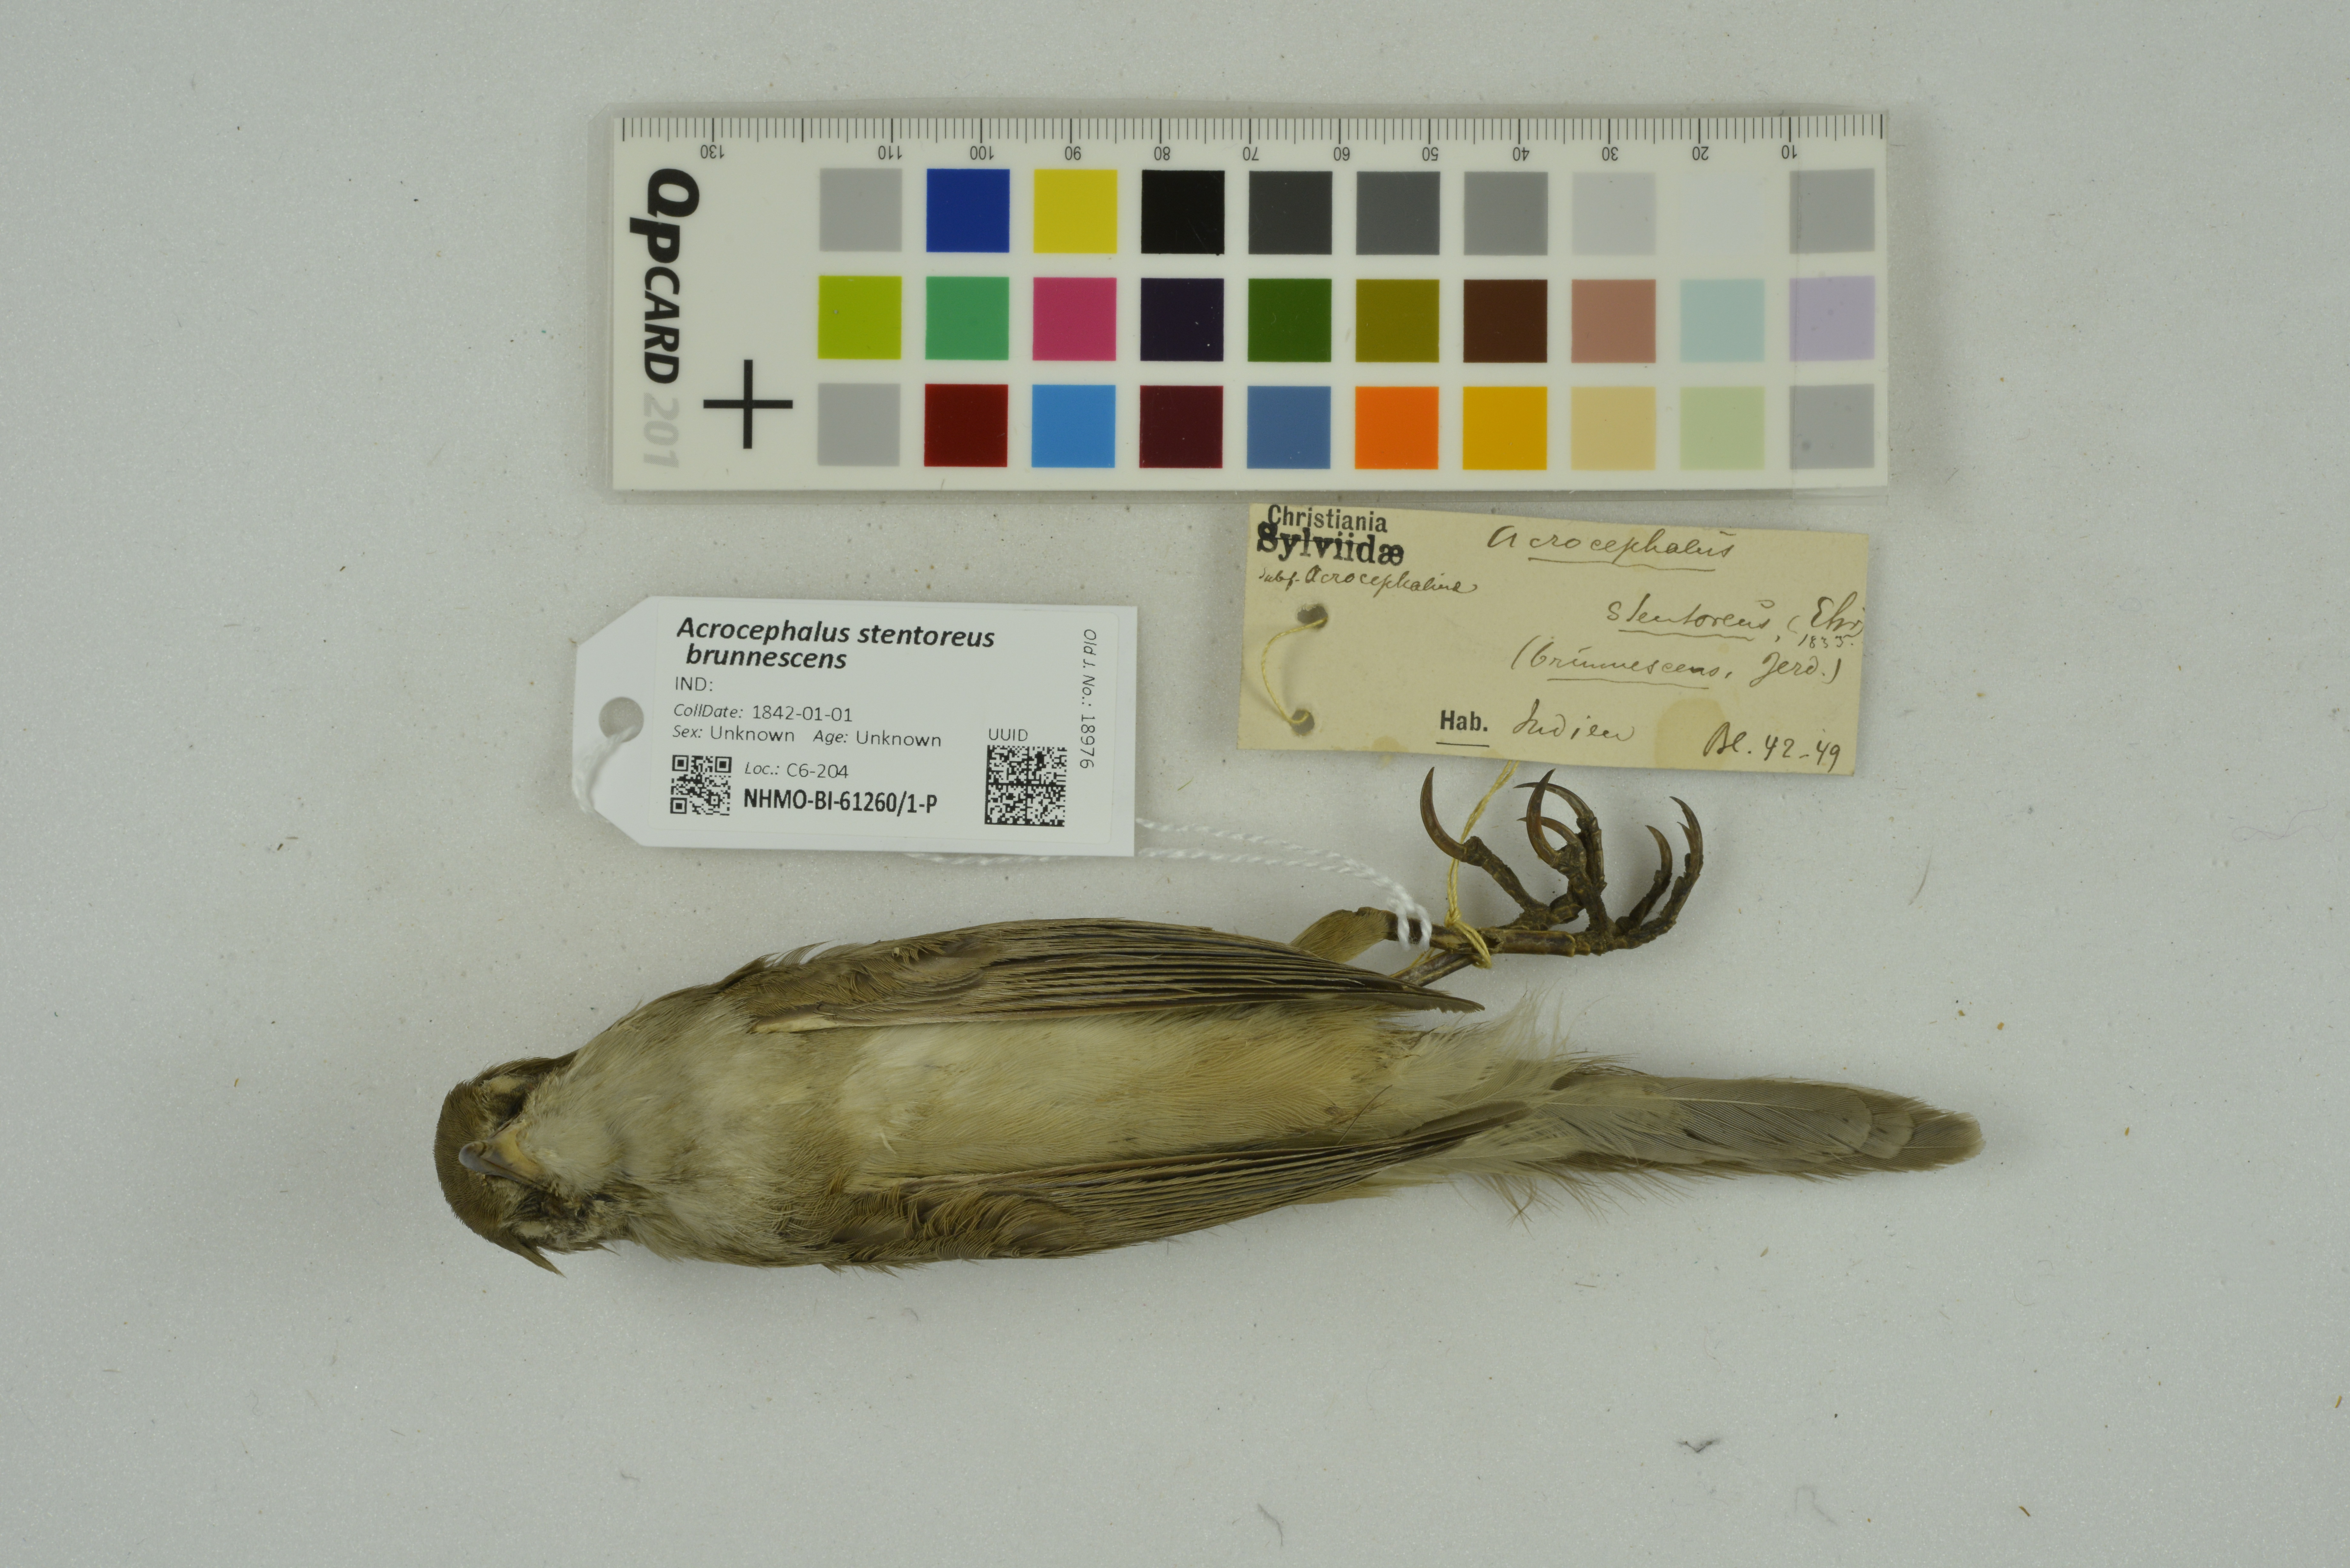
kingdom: Animalia
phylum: Chordata
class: Aves
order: Passeriformes
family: Acrocephalidae
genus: Acrocephalus
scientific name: Acrocephalus stentoreus
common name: Clamorous reed warbler
